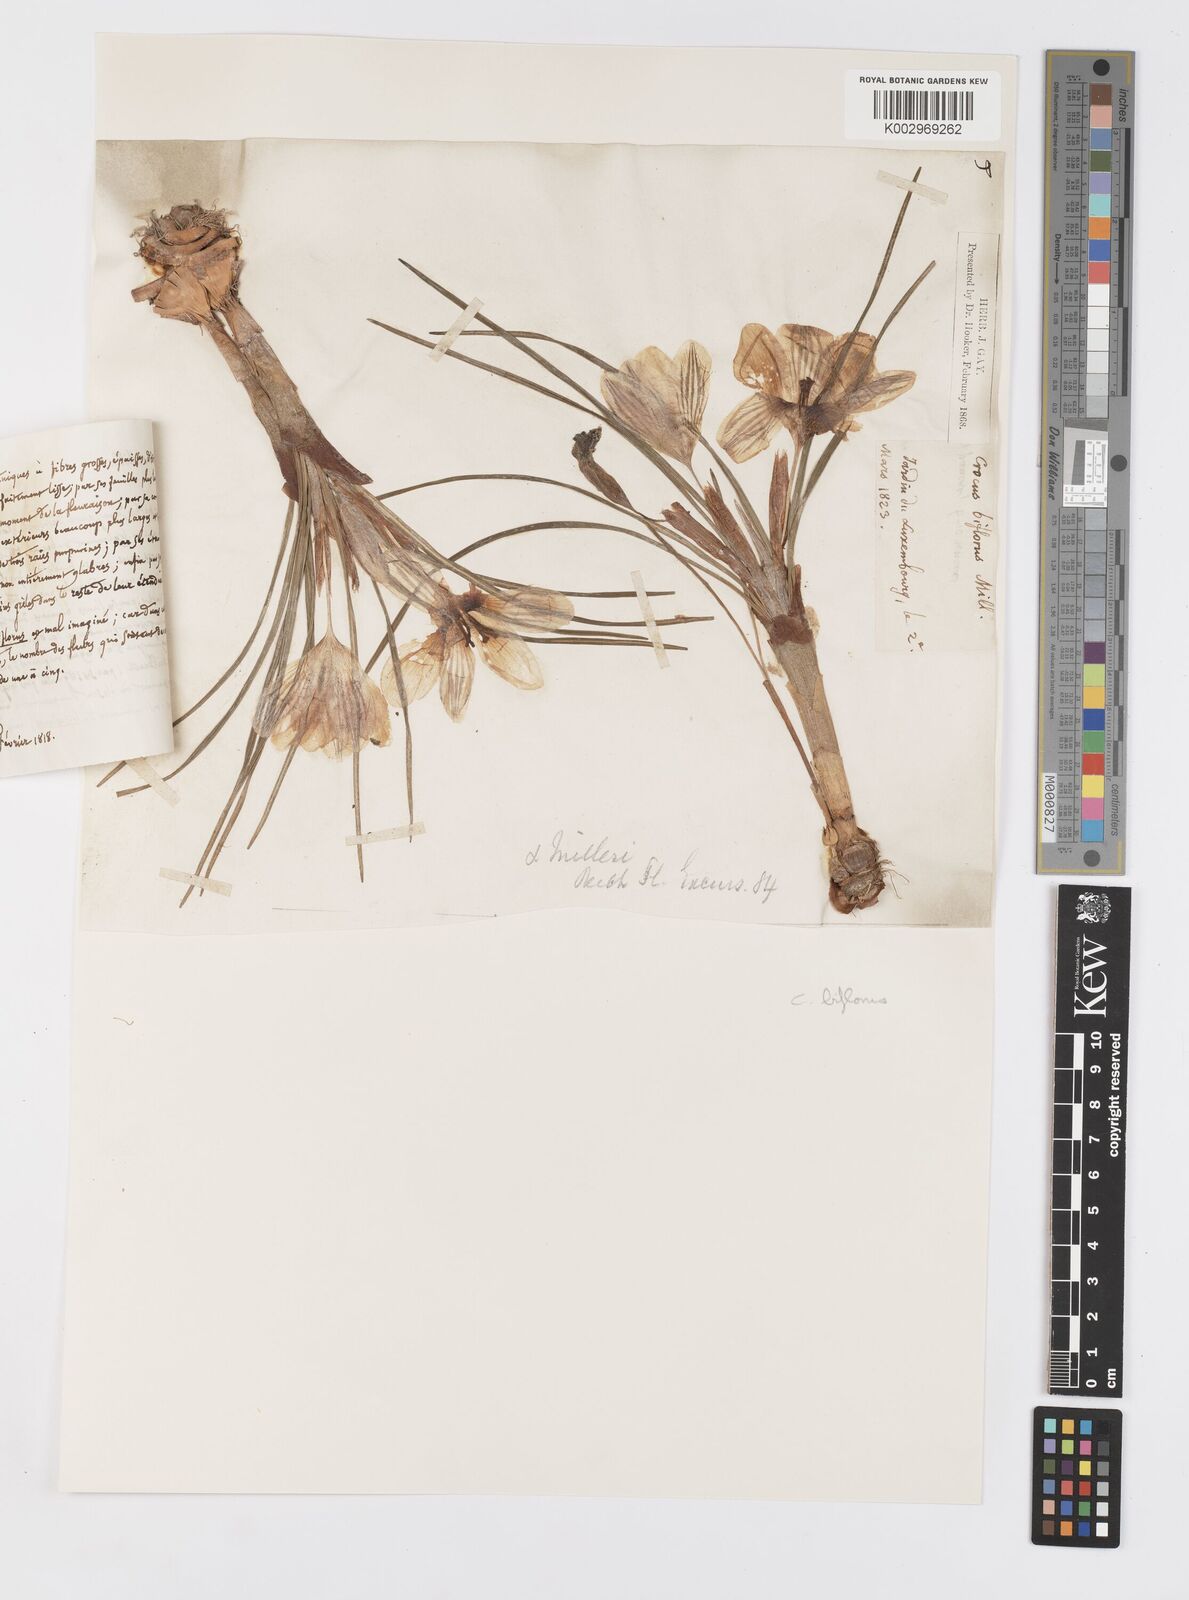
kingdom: Plantae
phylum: Tracheophyta
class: Liliopsida
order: Asparagales
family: Iridaceae
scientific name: Iridaceae
